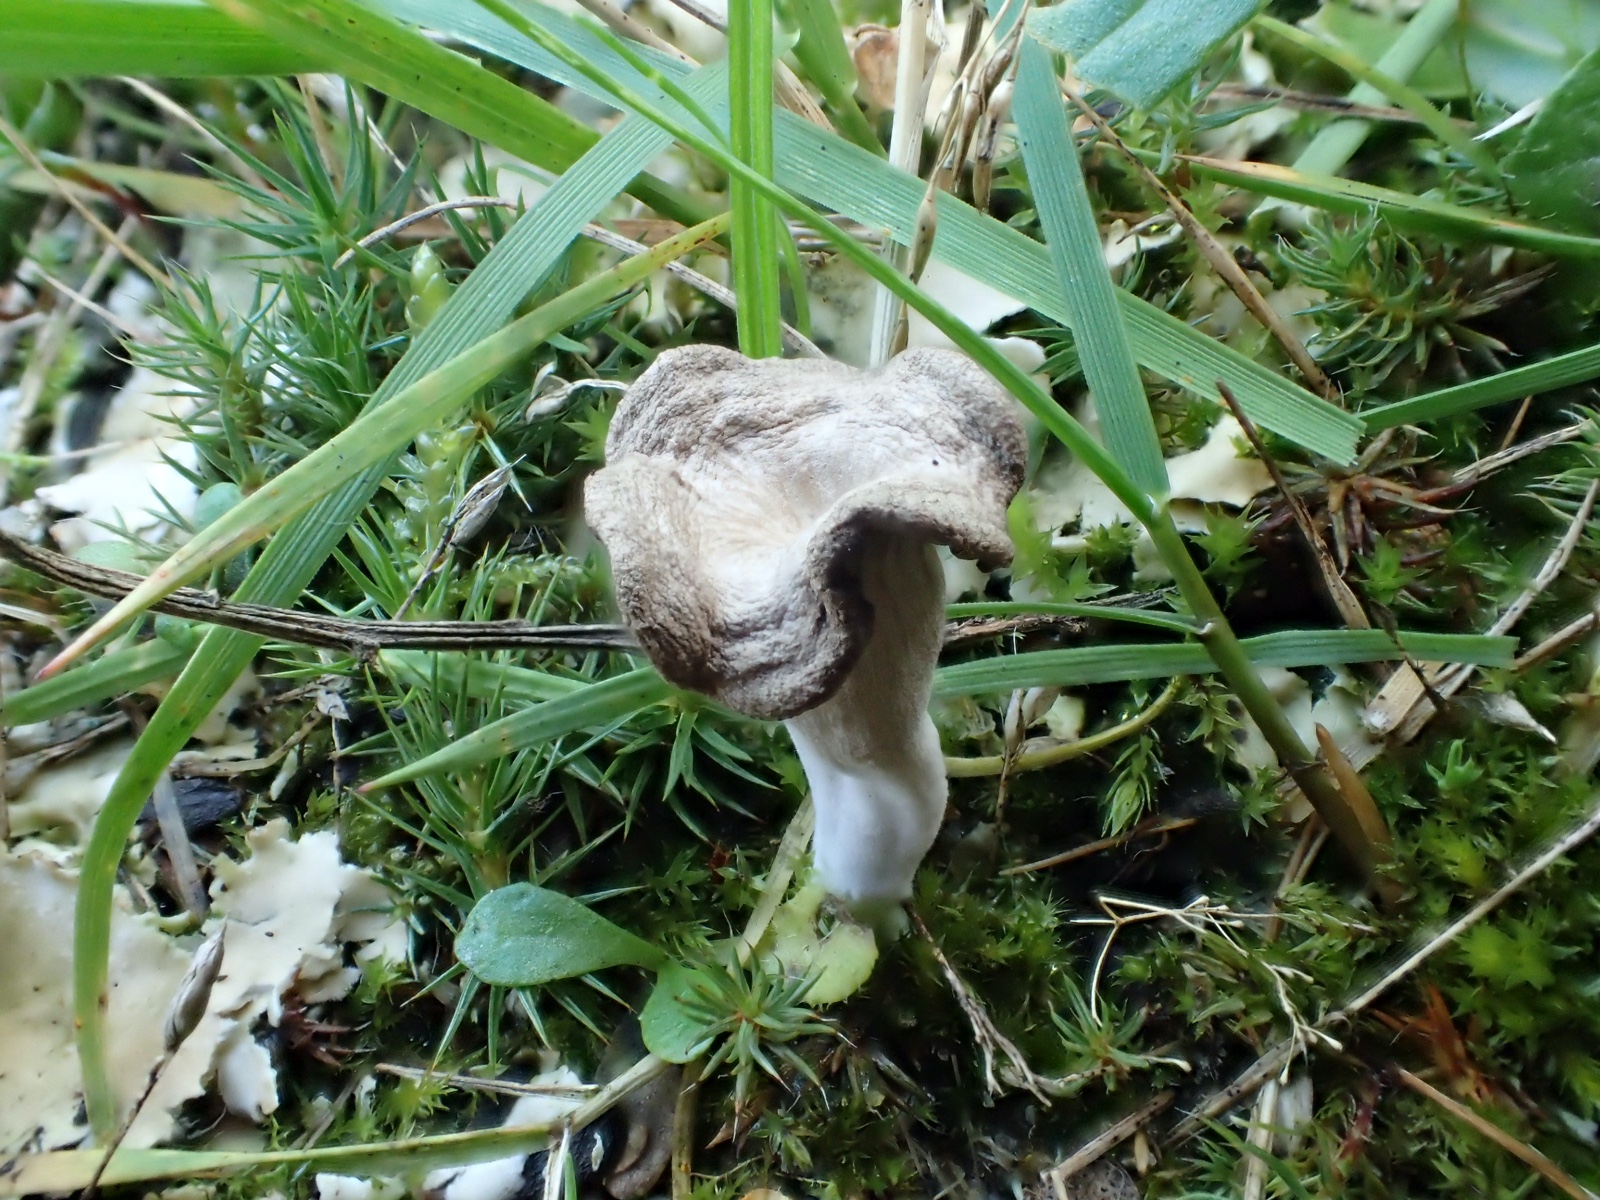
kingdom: Fungi
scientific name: Fungi
